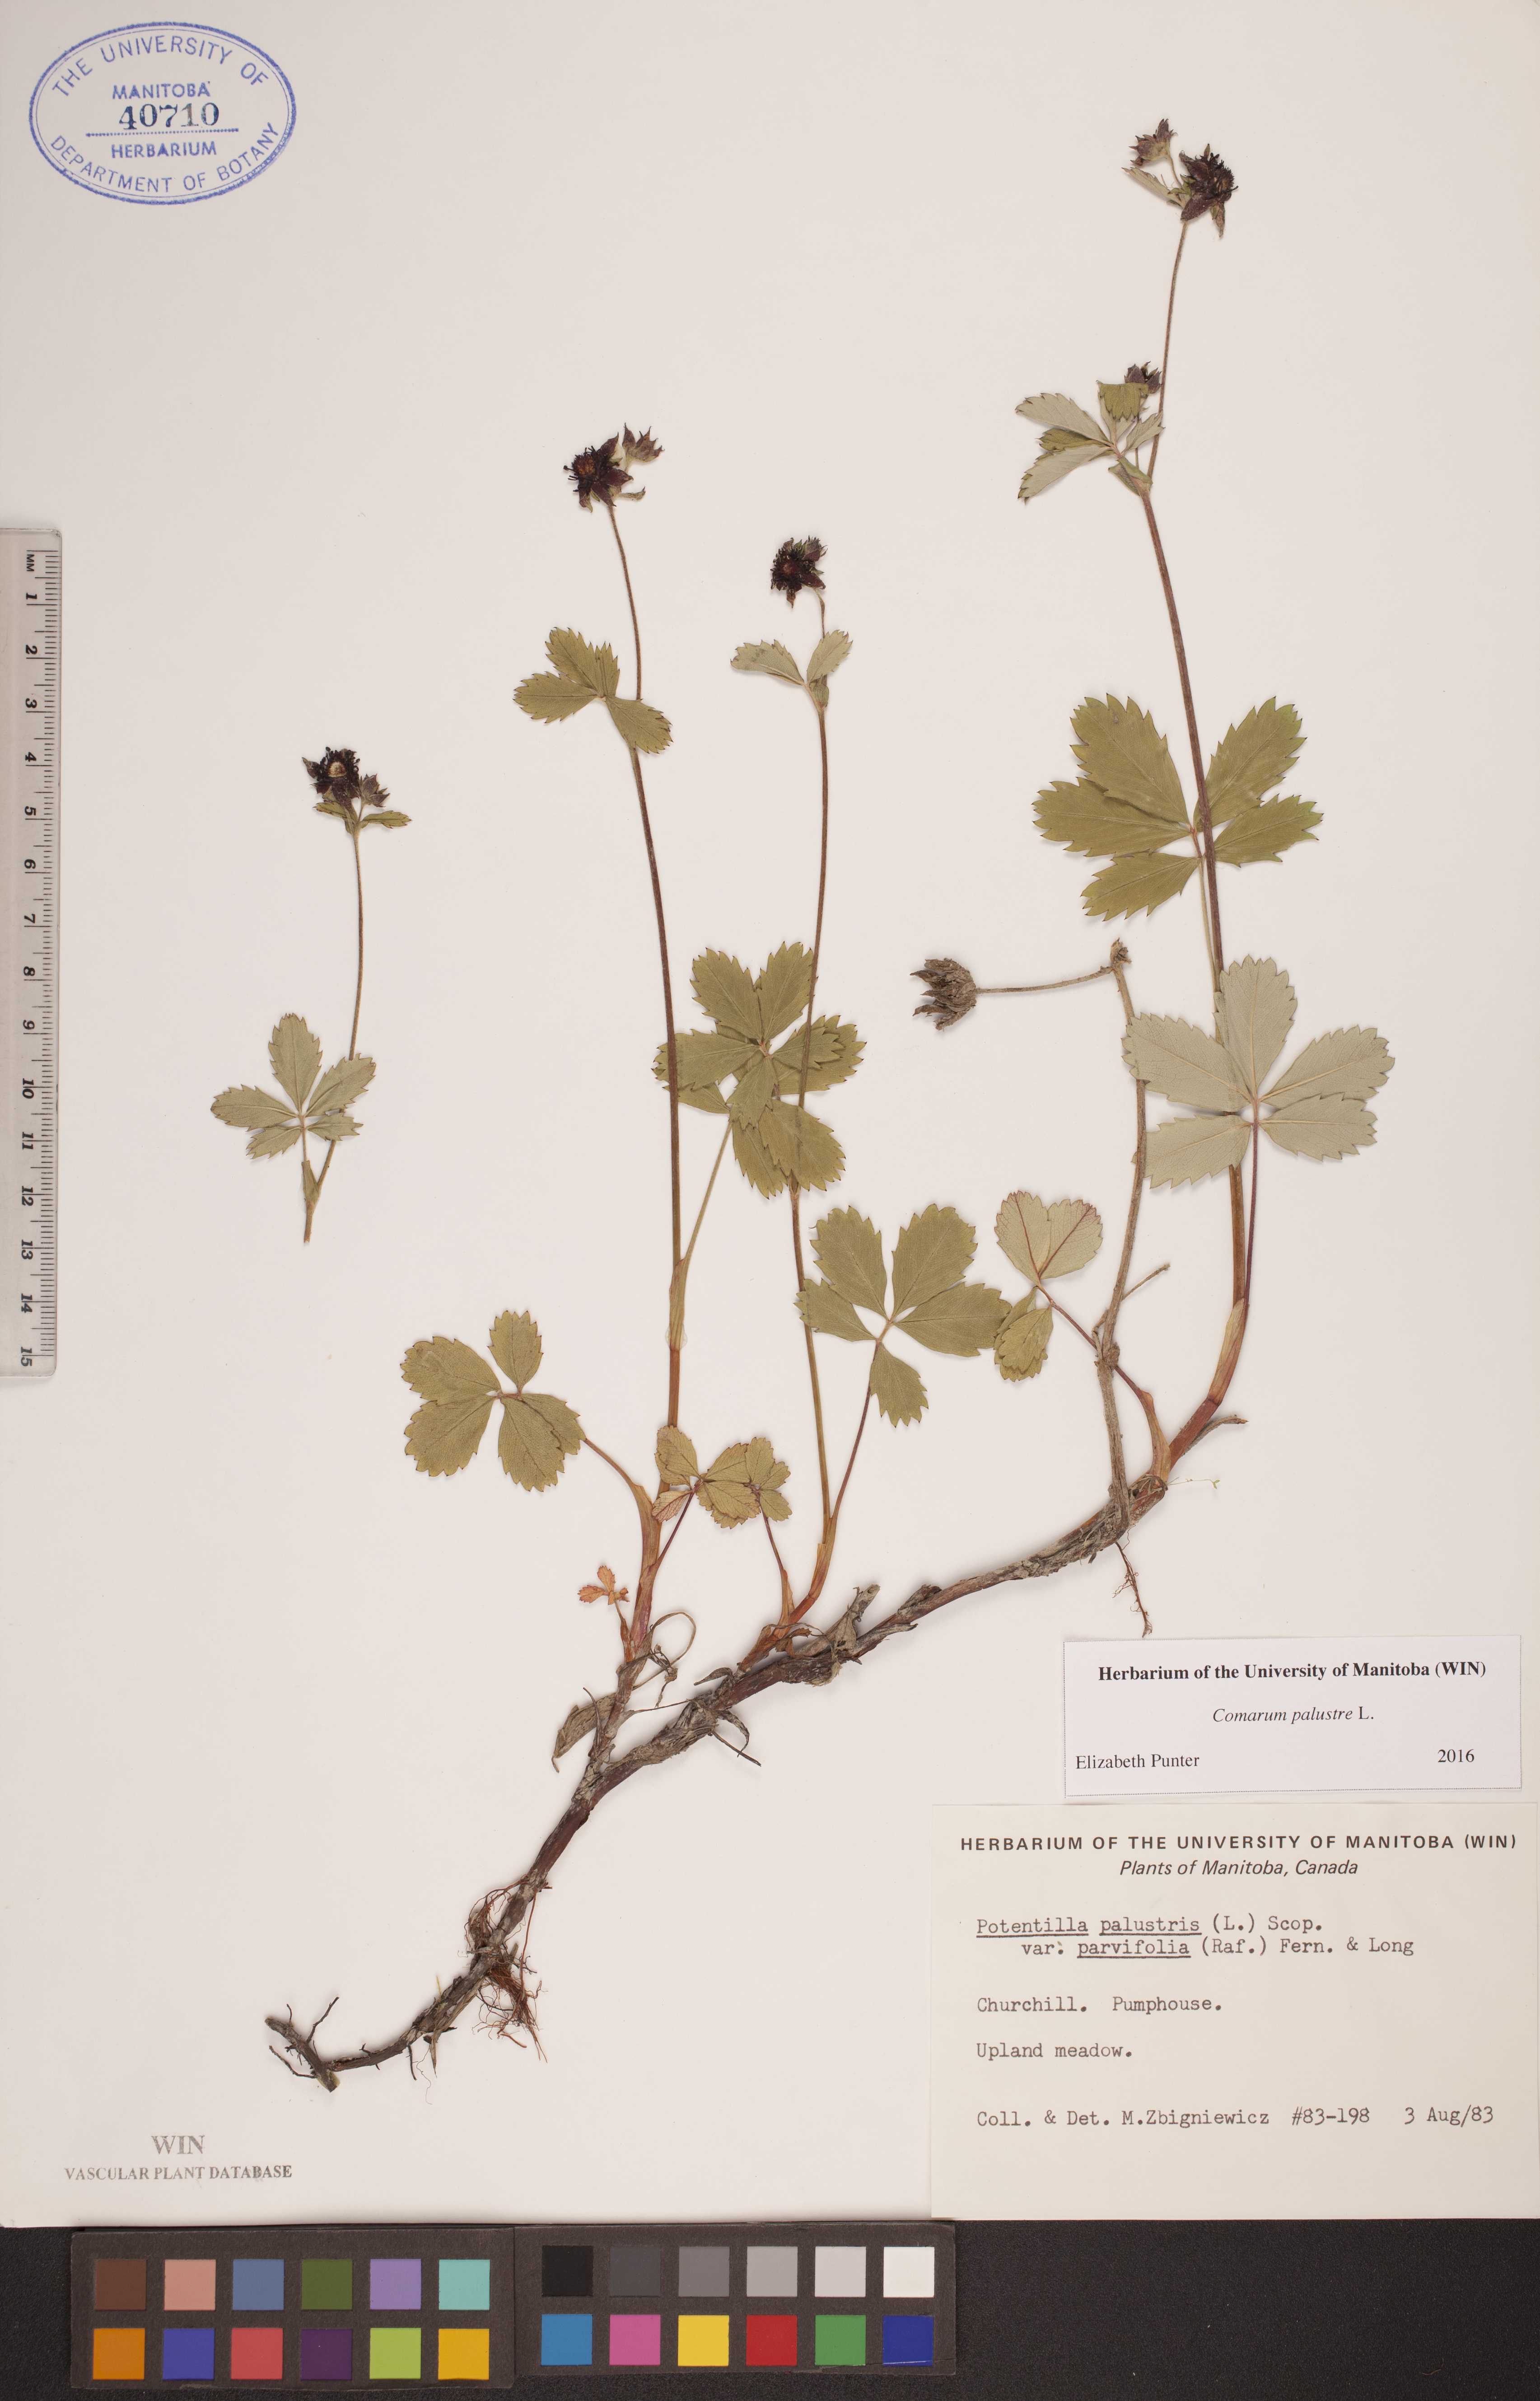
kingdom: Plantae
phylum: Tracheophyta
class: Magnoliopsida
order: Rosales
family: Rosaceae
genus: Comarum
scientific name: Comarum palustre
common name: Marsh cinquefoil
